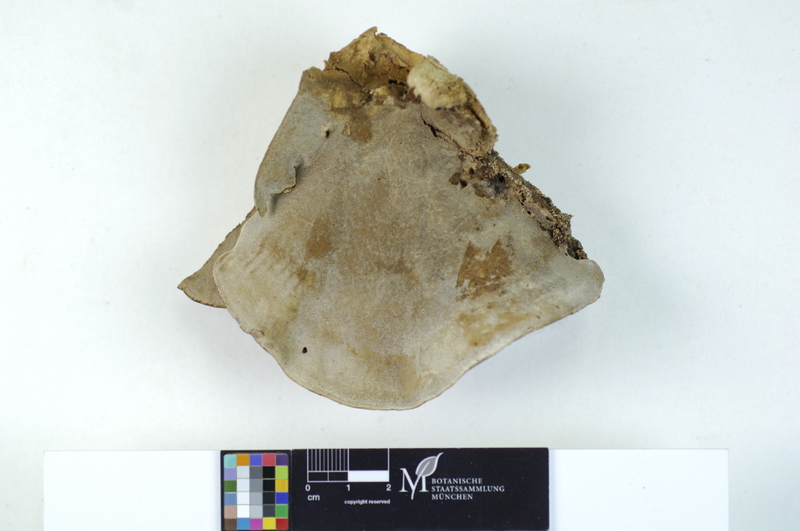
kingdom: Fungi
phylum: Basidiomycota
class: Agaricomycetes
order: Polyporales
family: Polyporaceae
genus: Vanderbylia
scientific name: Vanderbylia fraxinea
